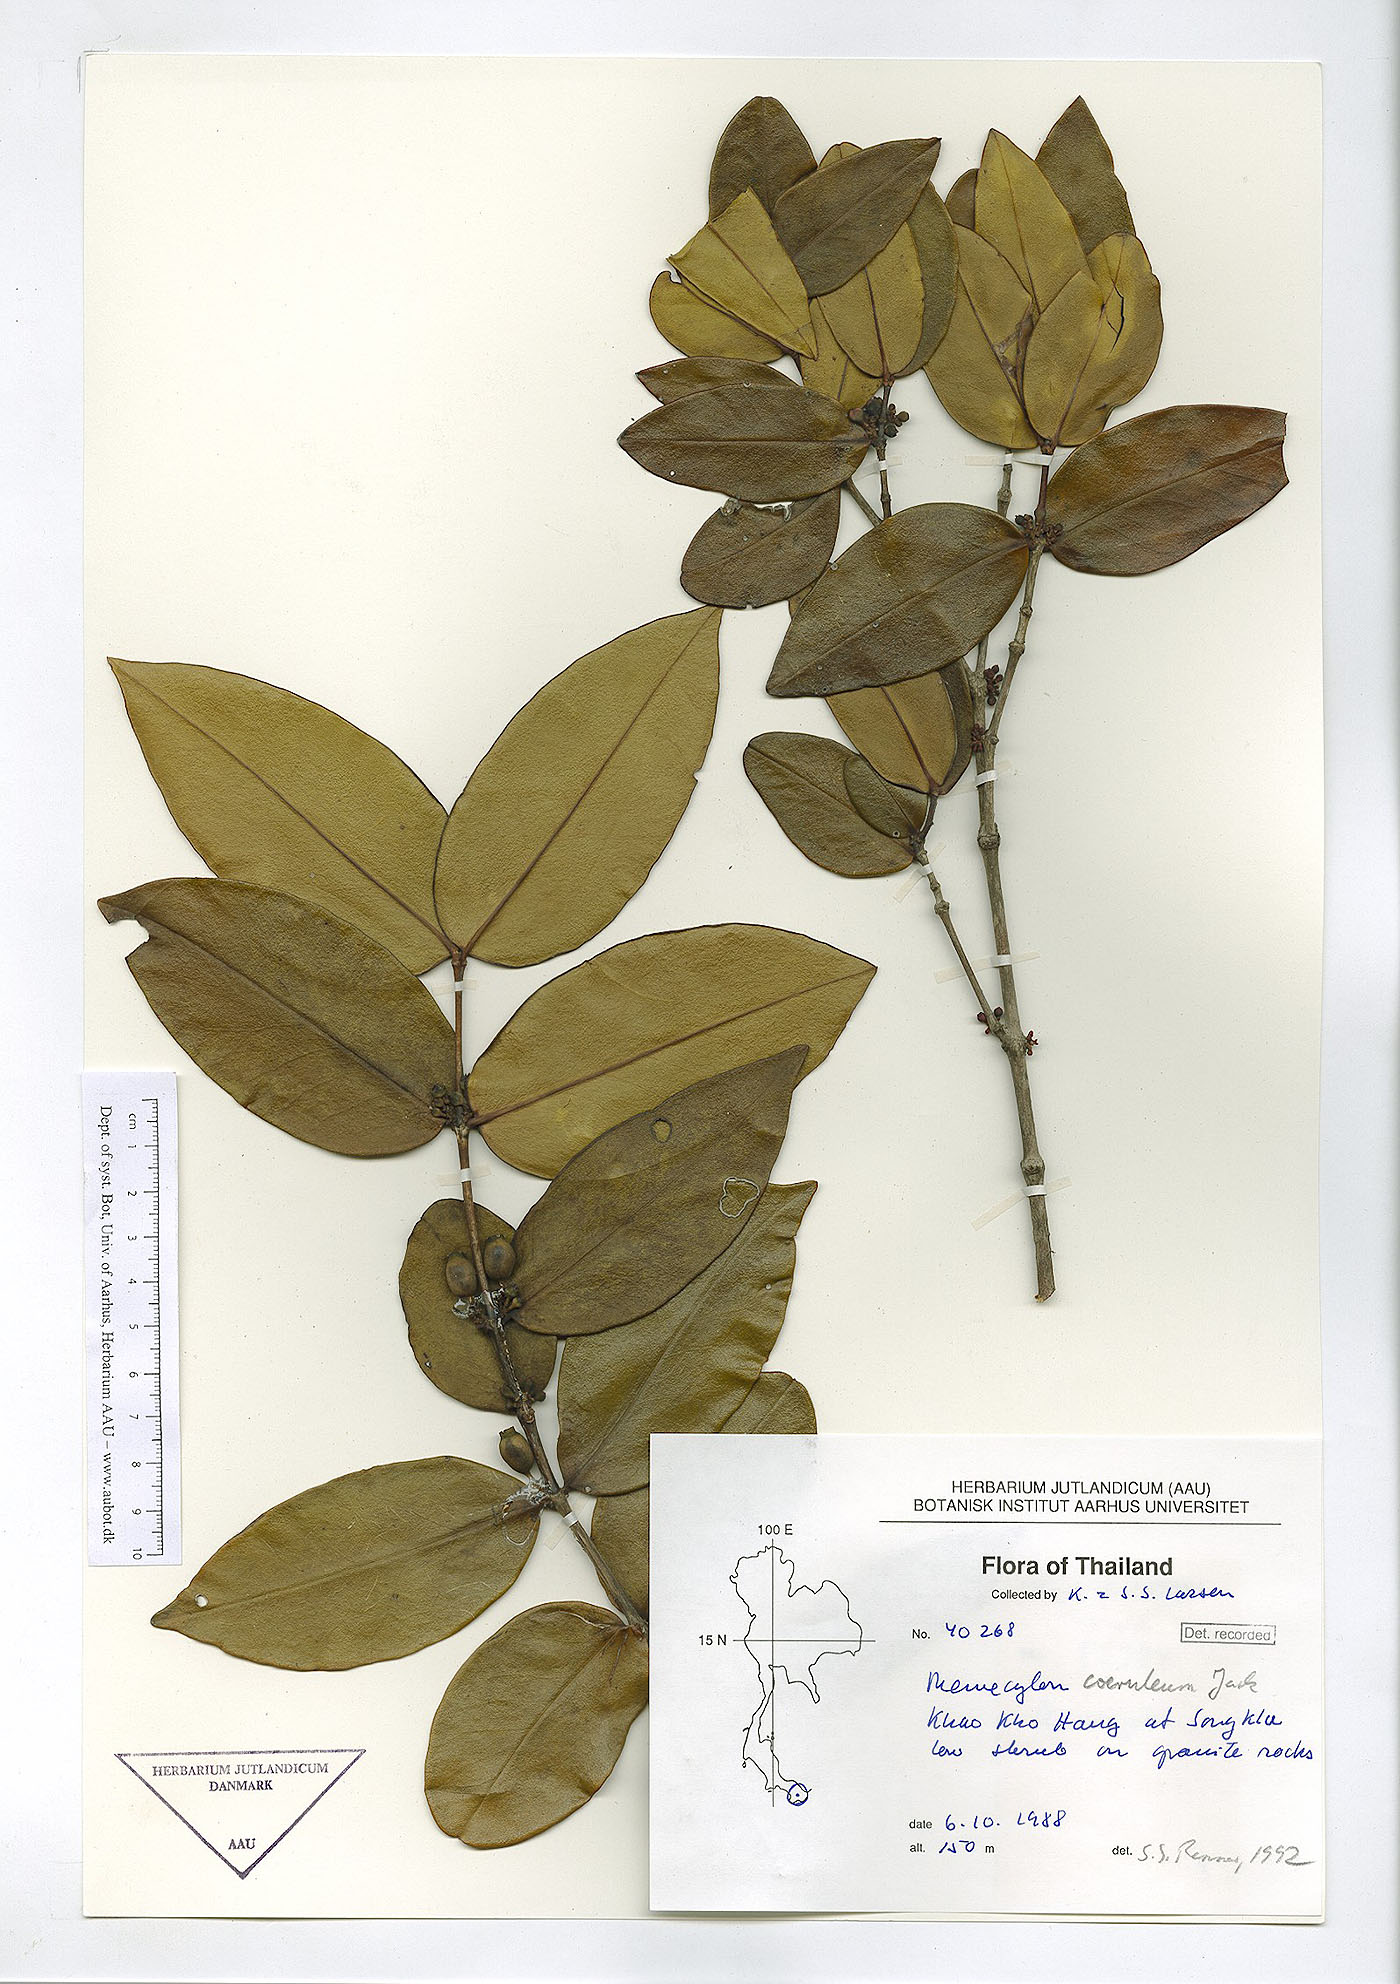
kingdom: Plantae
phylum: Tracheophyta
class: Magnoliopsida
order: Myrtales
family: Melastomataceae
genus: Memecylon
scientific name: Memecylon caeruleum
